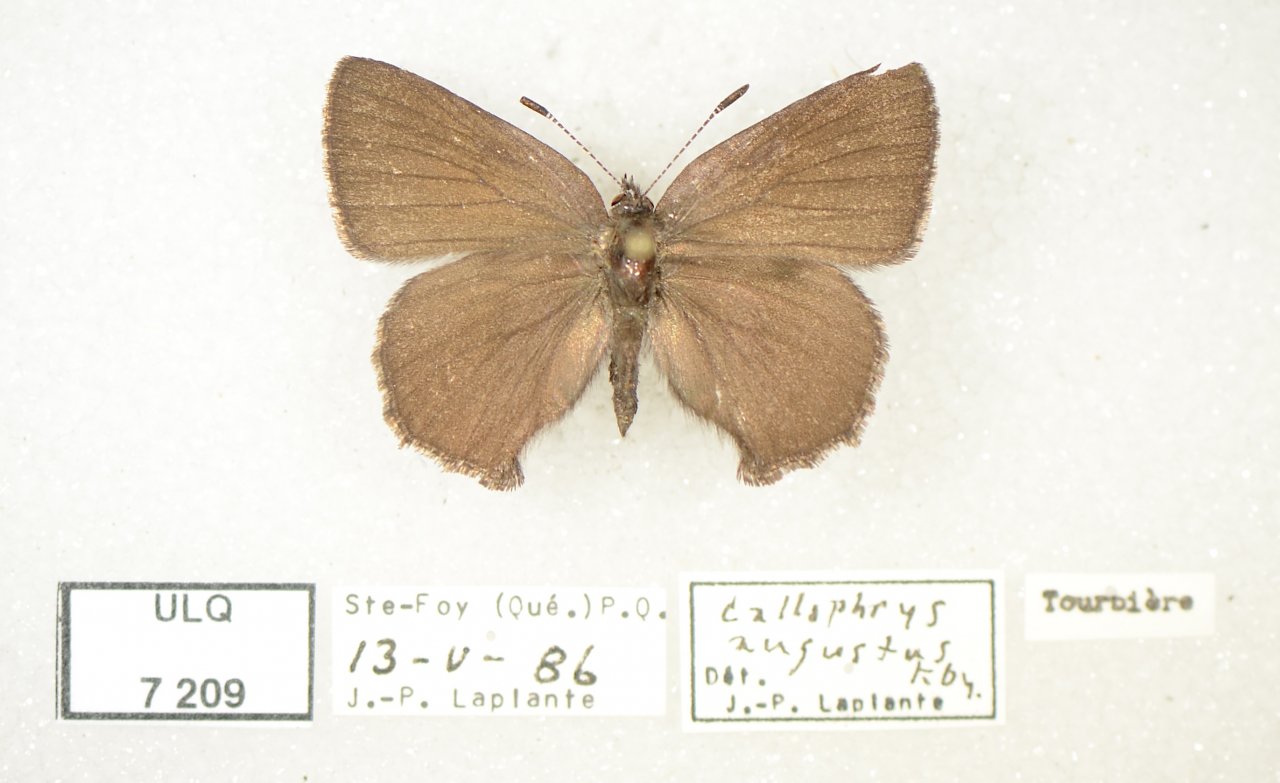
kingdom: Animalia
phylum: Arthropoda
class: Insecta
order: Lepidoptera
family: Lycaenidae
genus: Incisalia
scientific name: Incisalia irioides
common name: Brown Elfin
